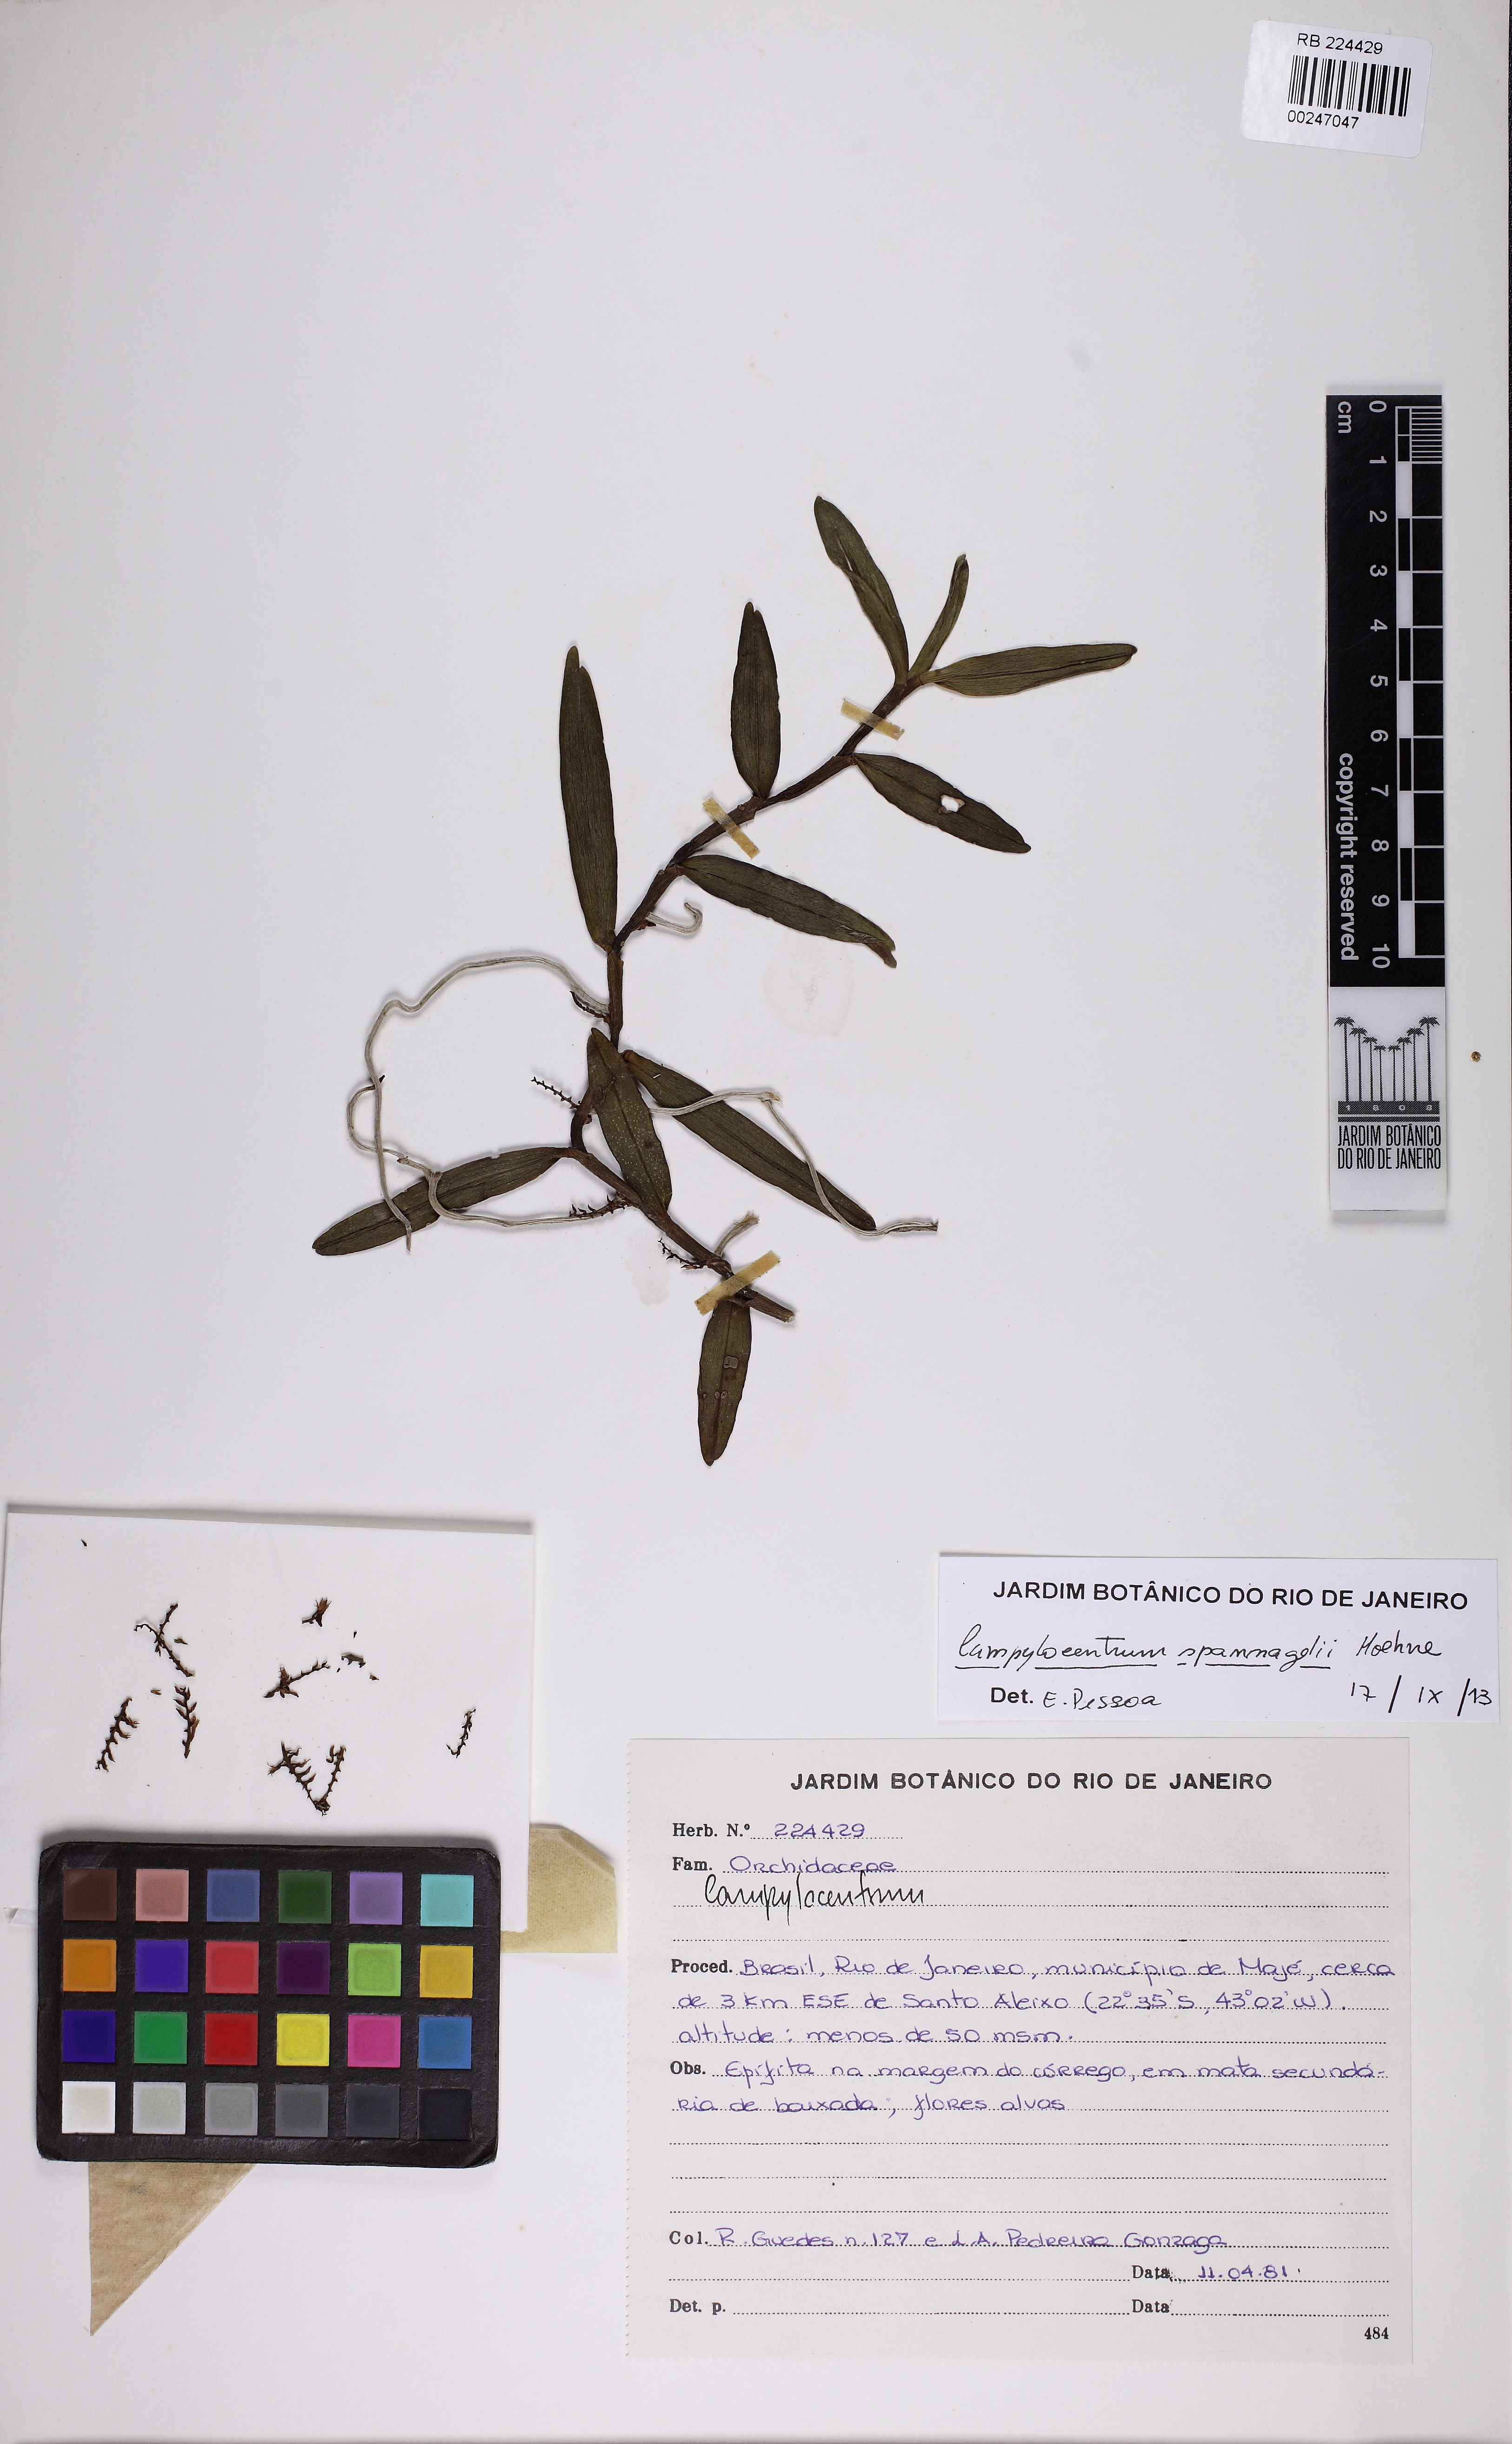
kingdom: Plantae
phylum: Tracheophyta
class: Liliopsida
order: Asparagales
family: Orchidaceae
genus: Campylocentrum
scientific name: Campylocentrum spannagelii
